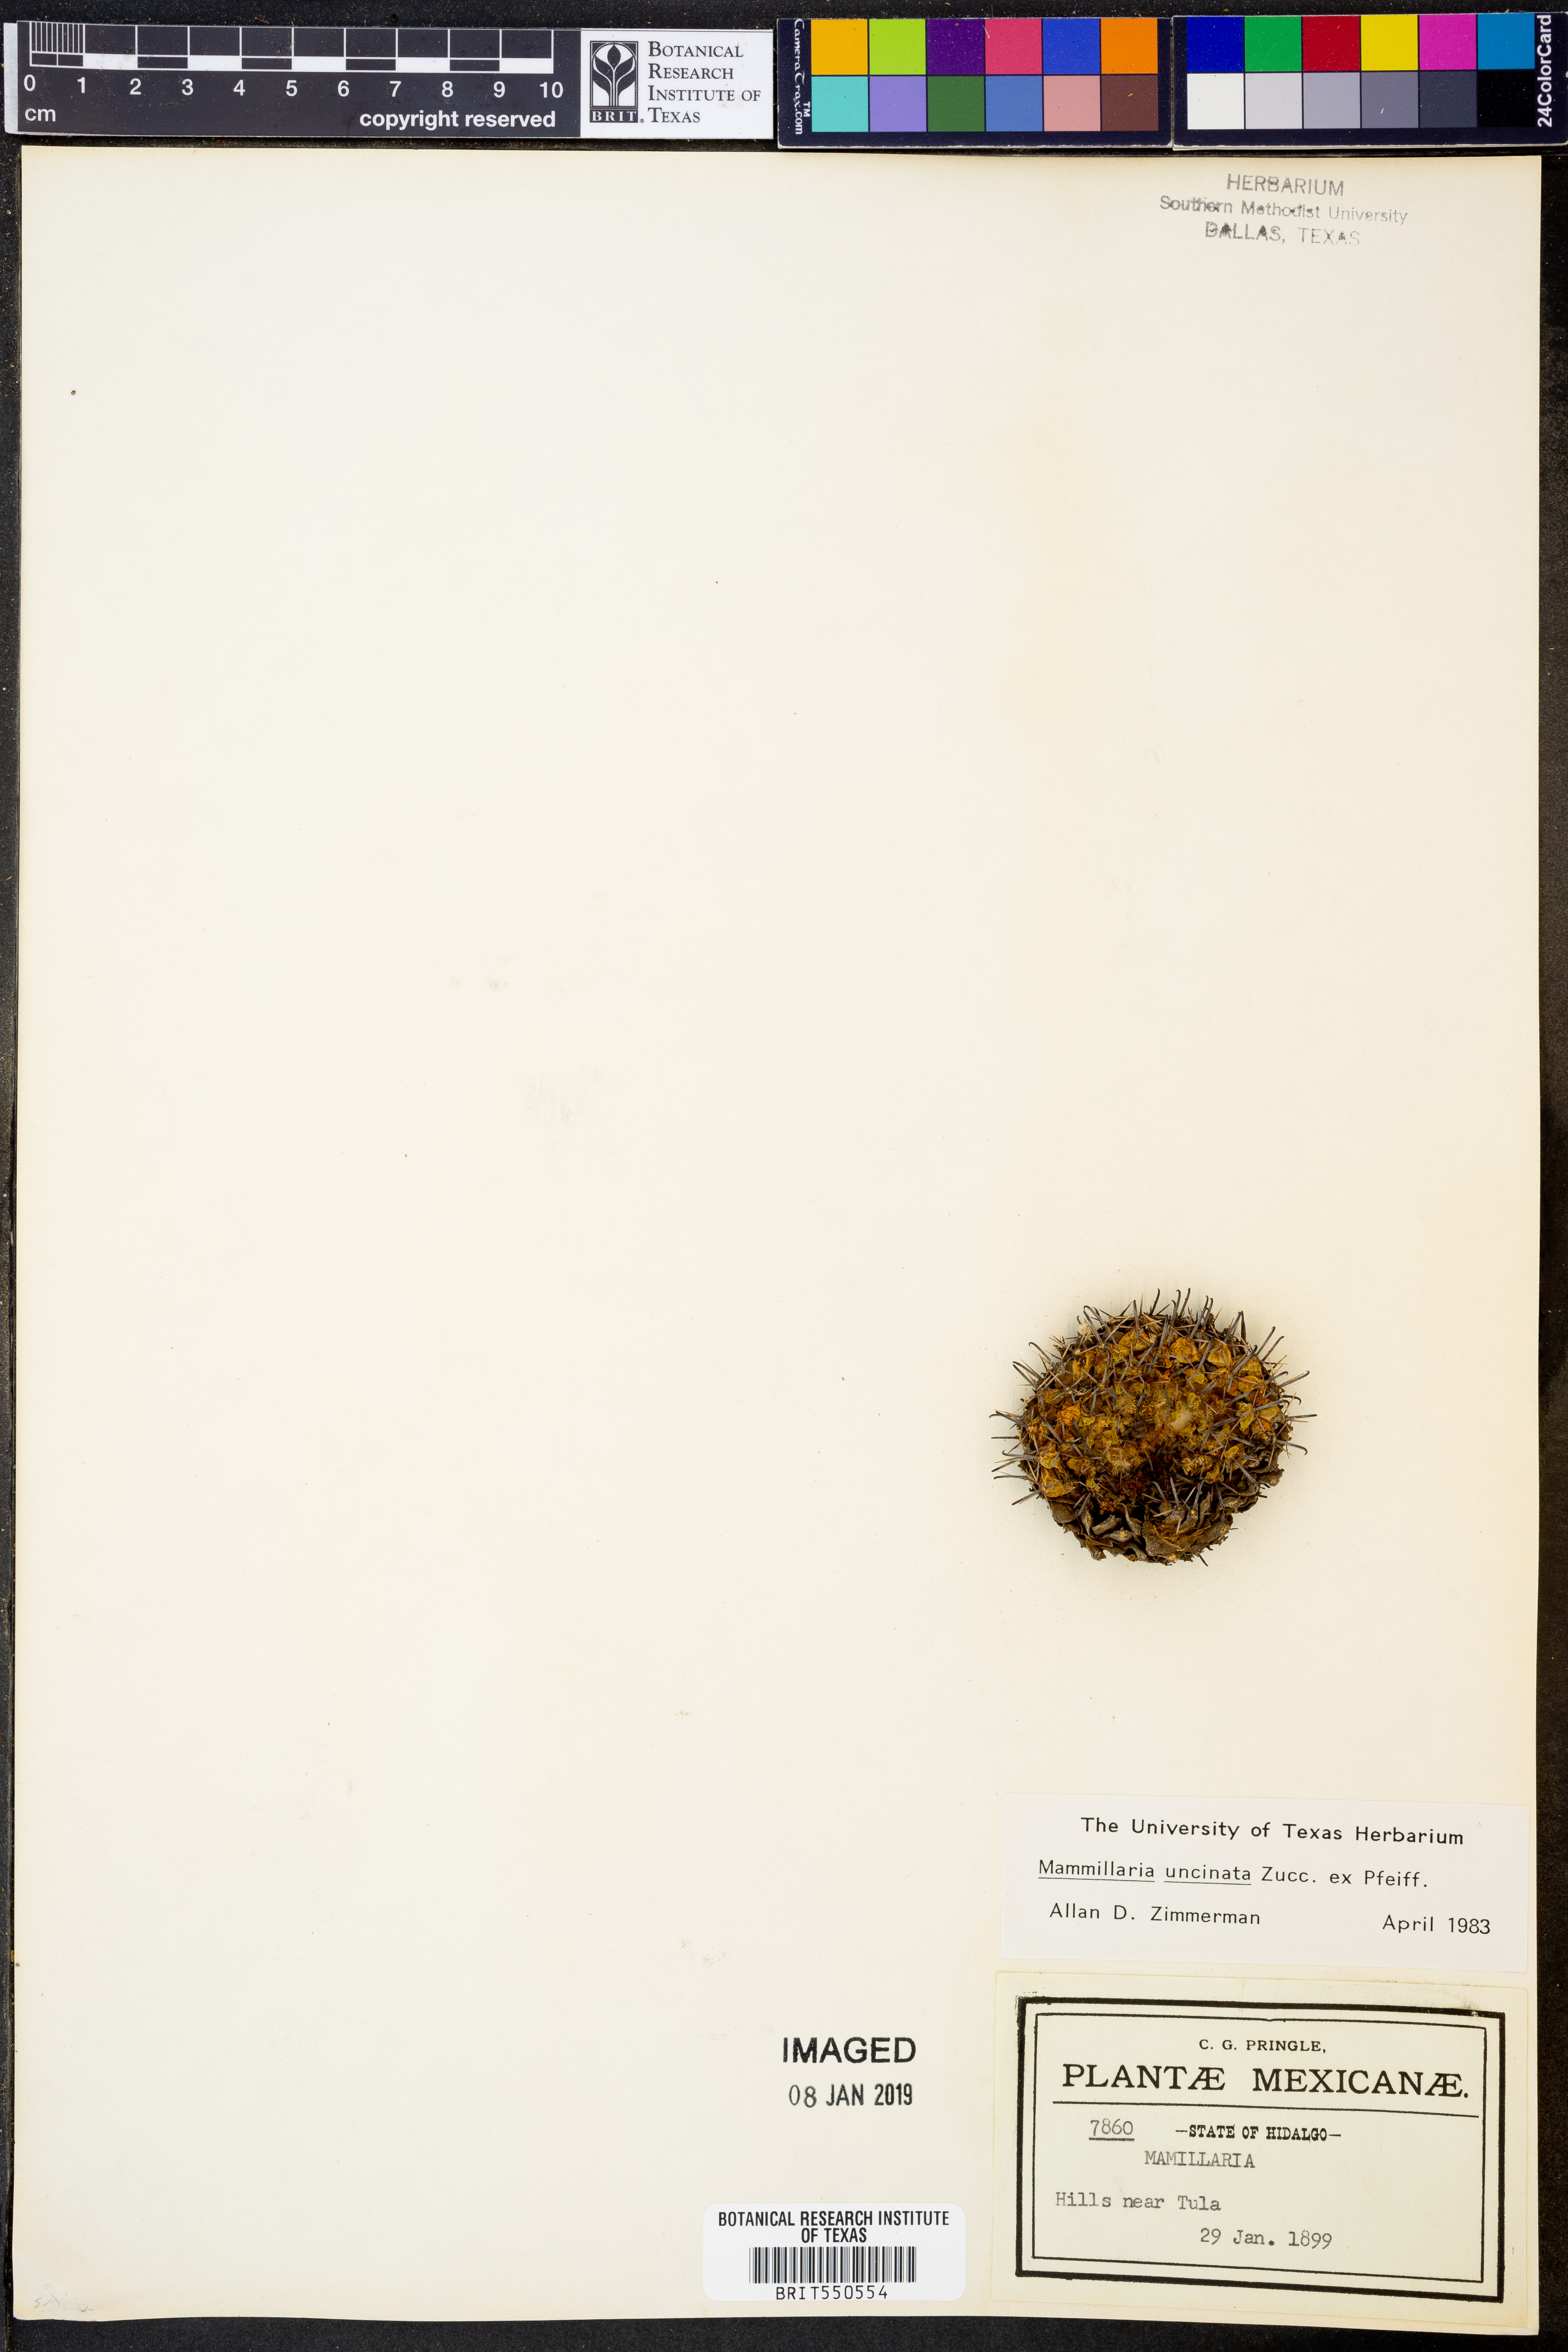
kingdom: Plantae
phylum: Tracheophyta
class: Magnoliopsida
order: Caryophyllales
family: Cactaceae
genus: Mammillaria
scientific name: Mammillaria uncinata
